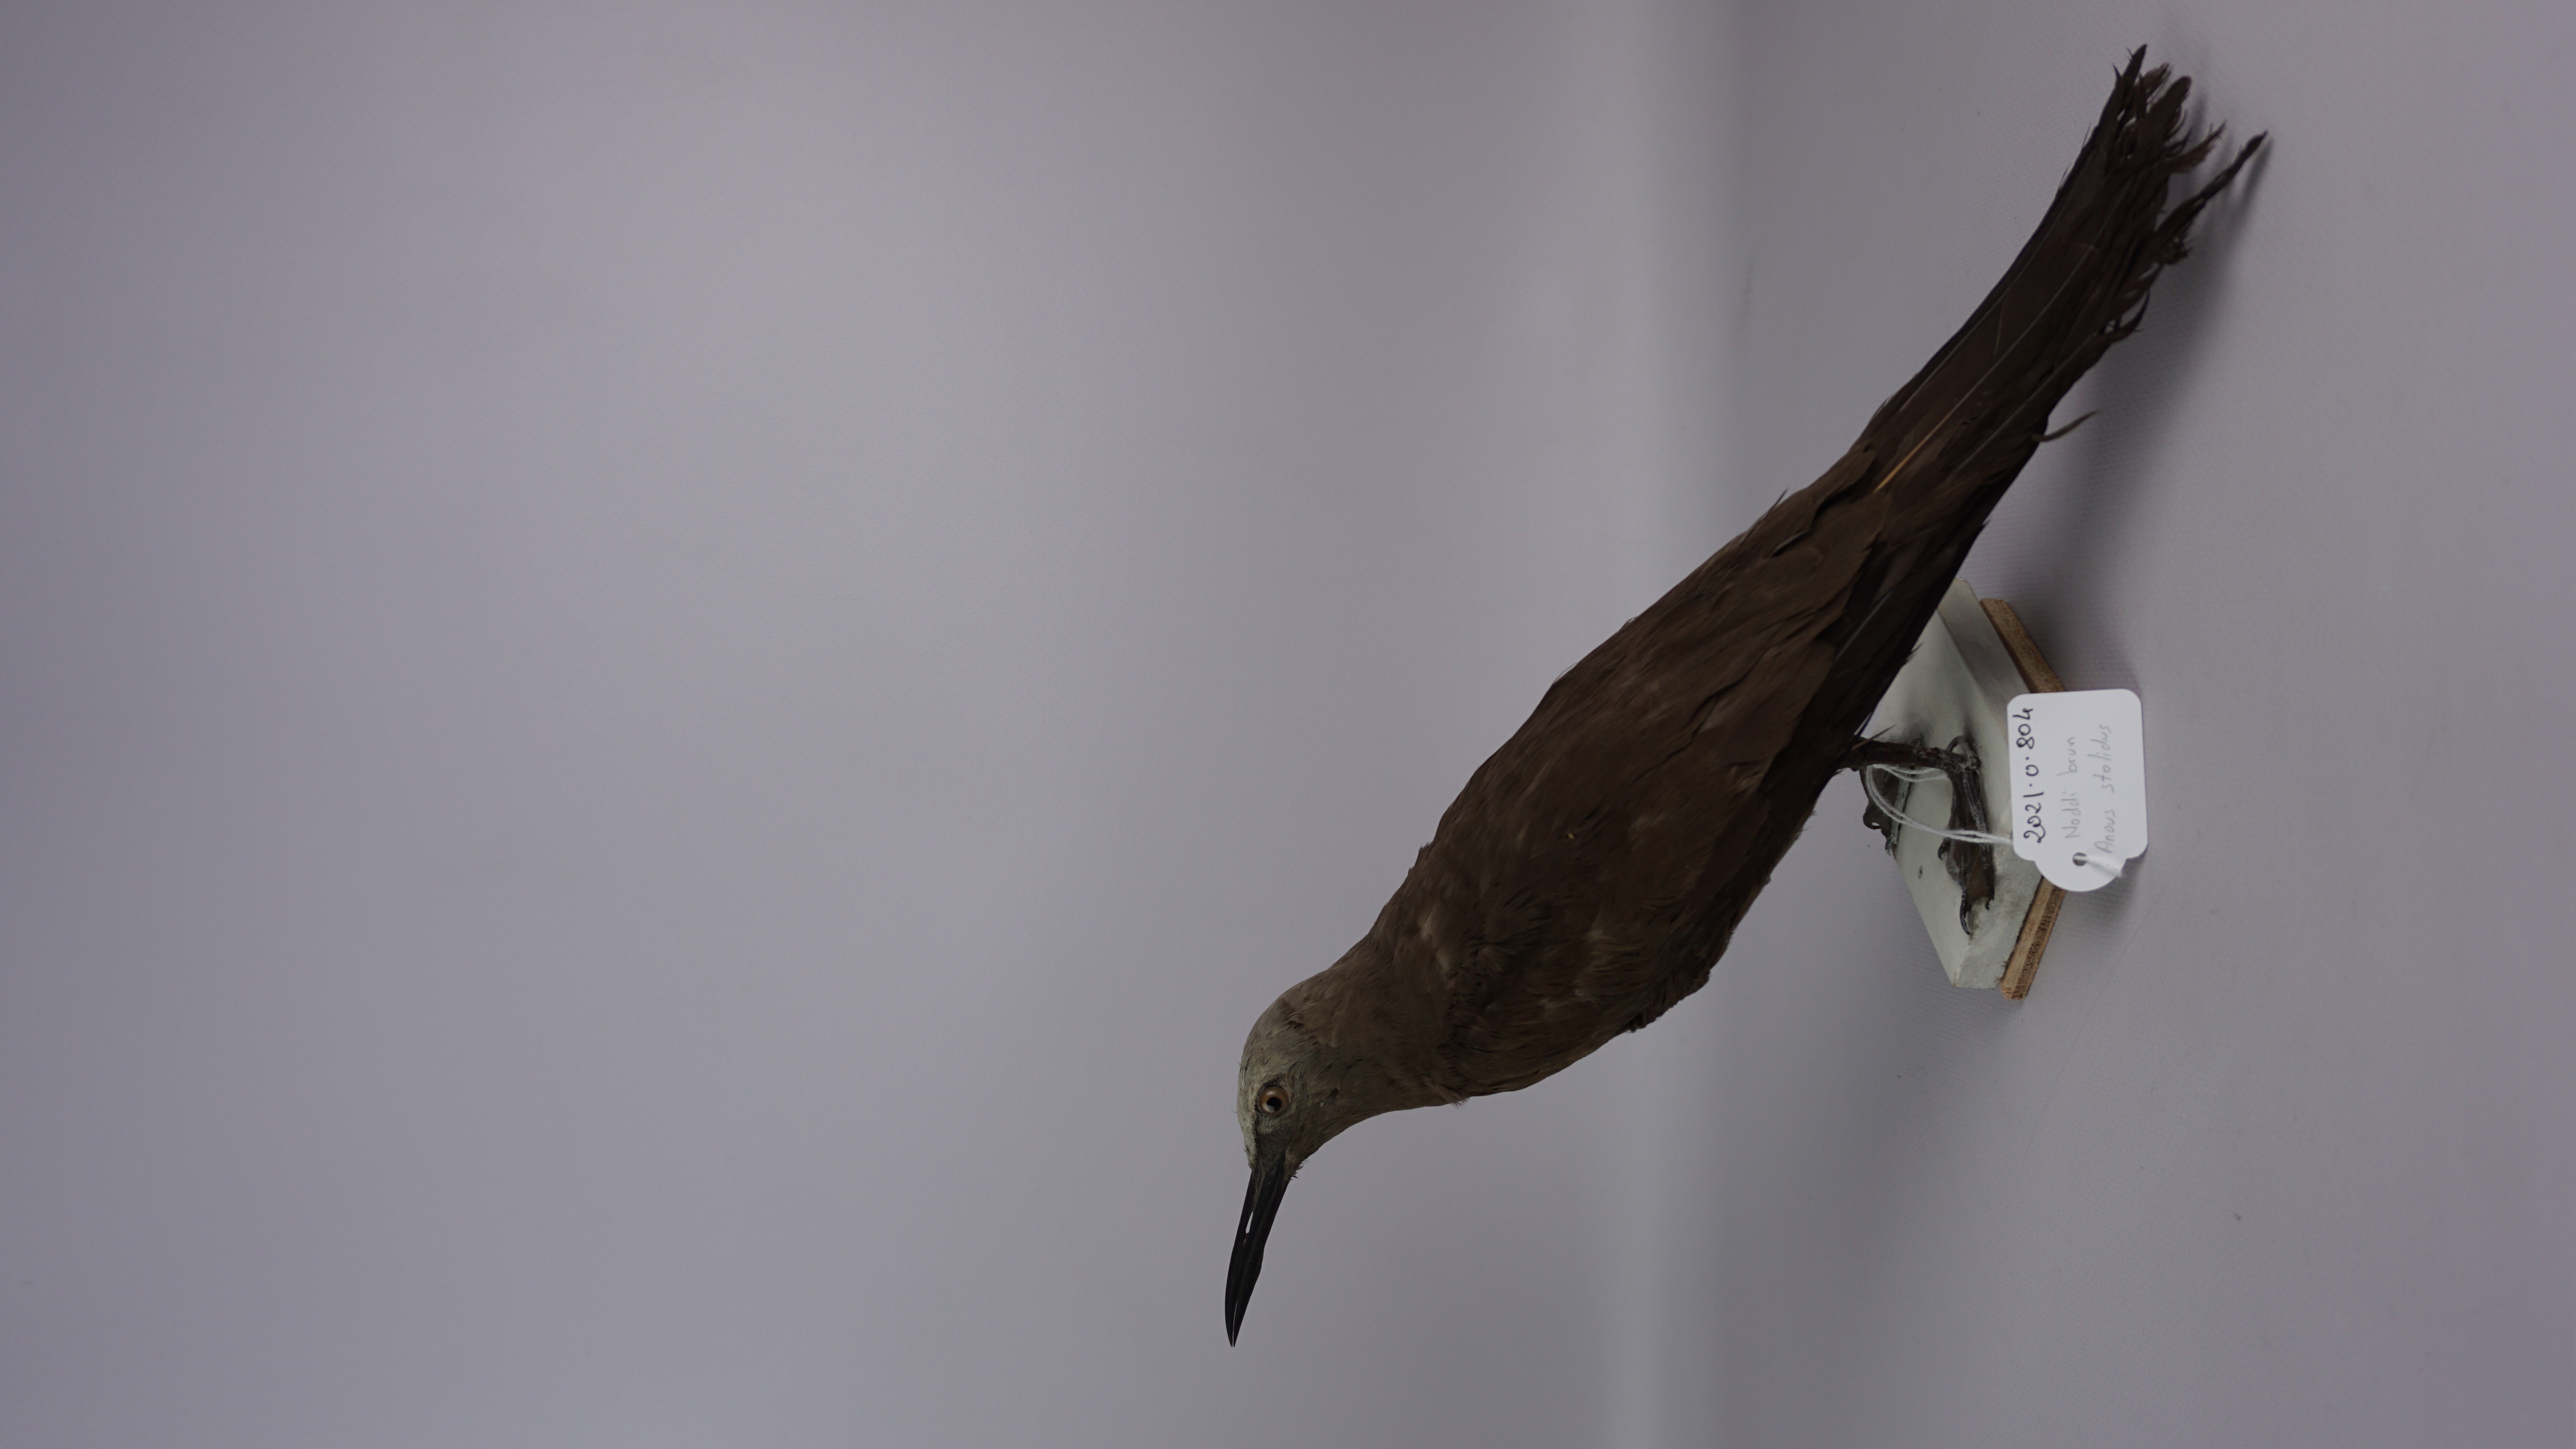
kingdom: Animalia
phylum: Chordata
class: Aves
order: Charadriiformes
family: Laridae
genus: Anous
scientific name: Anous stolidus
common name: Brown noddy
